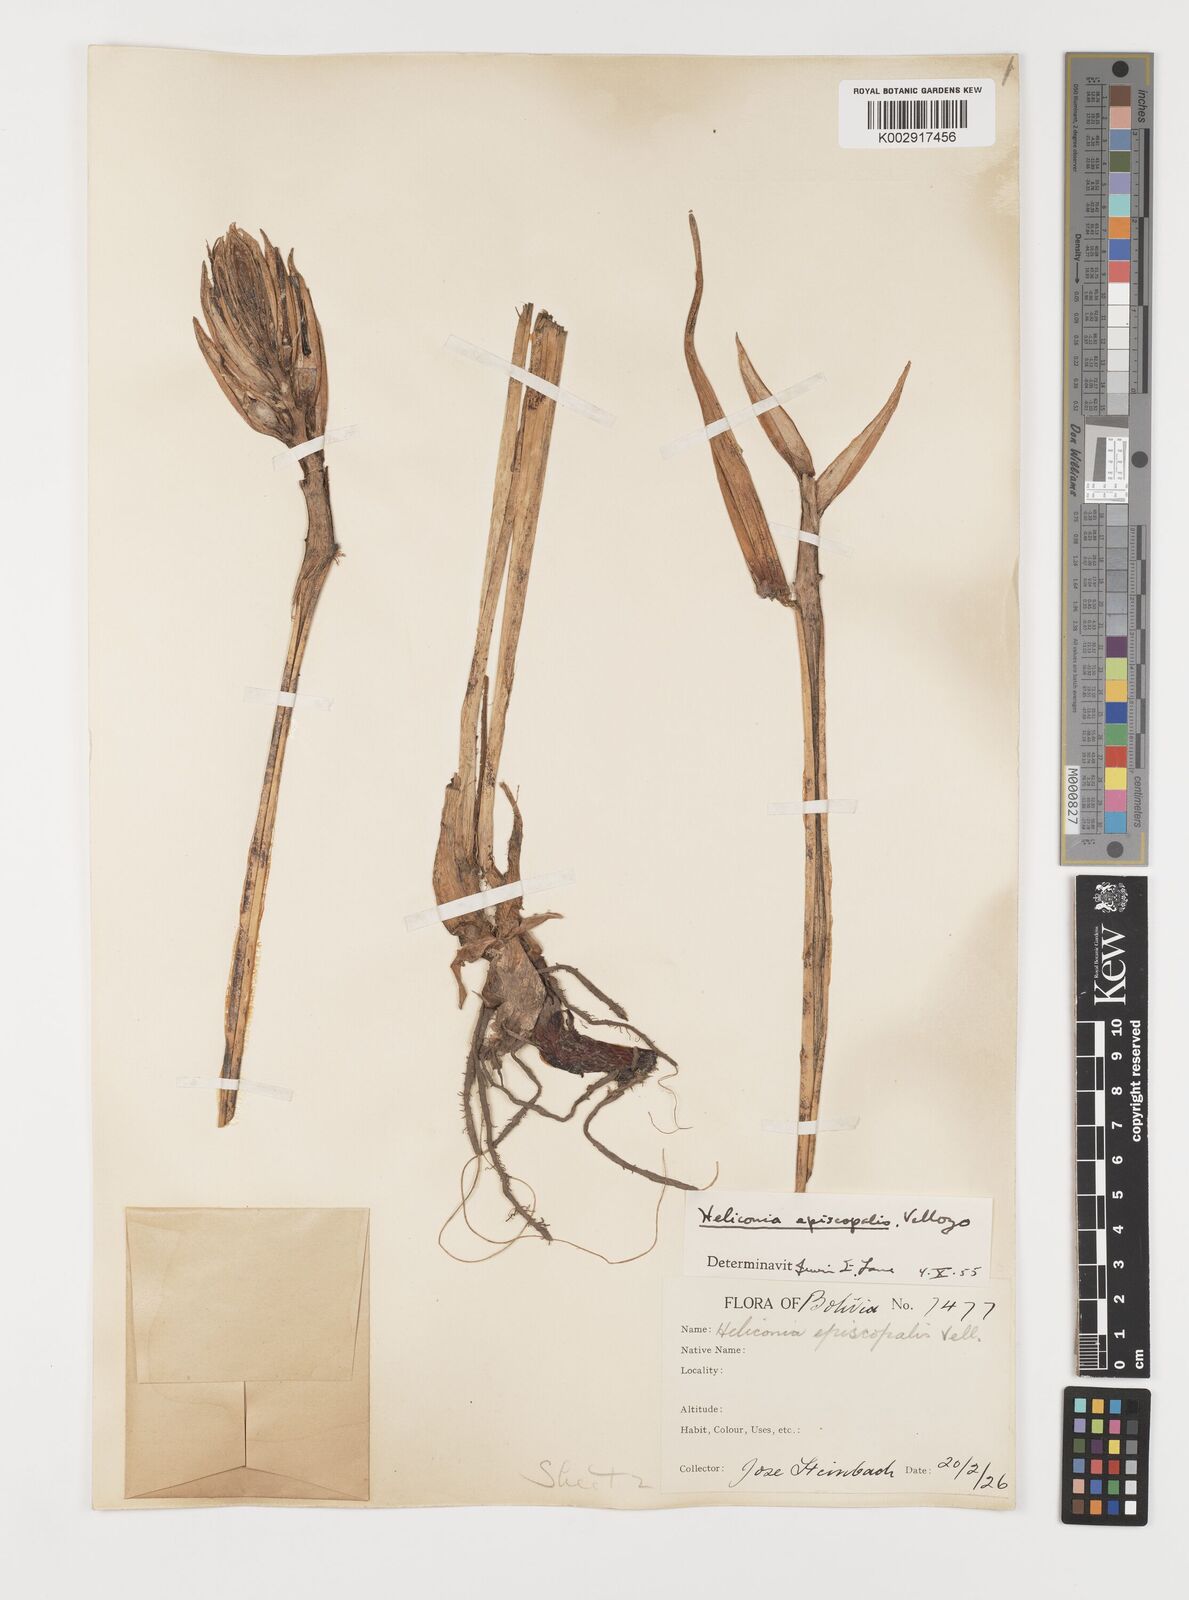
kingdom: Plantae
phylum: Tracheophyta
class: Liliopsida
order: Zingiberales
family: Heliconiaceae
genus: Heliconia
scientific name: Heliconia episcopalis
